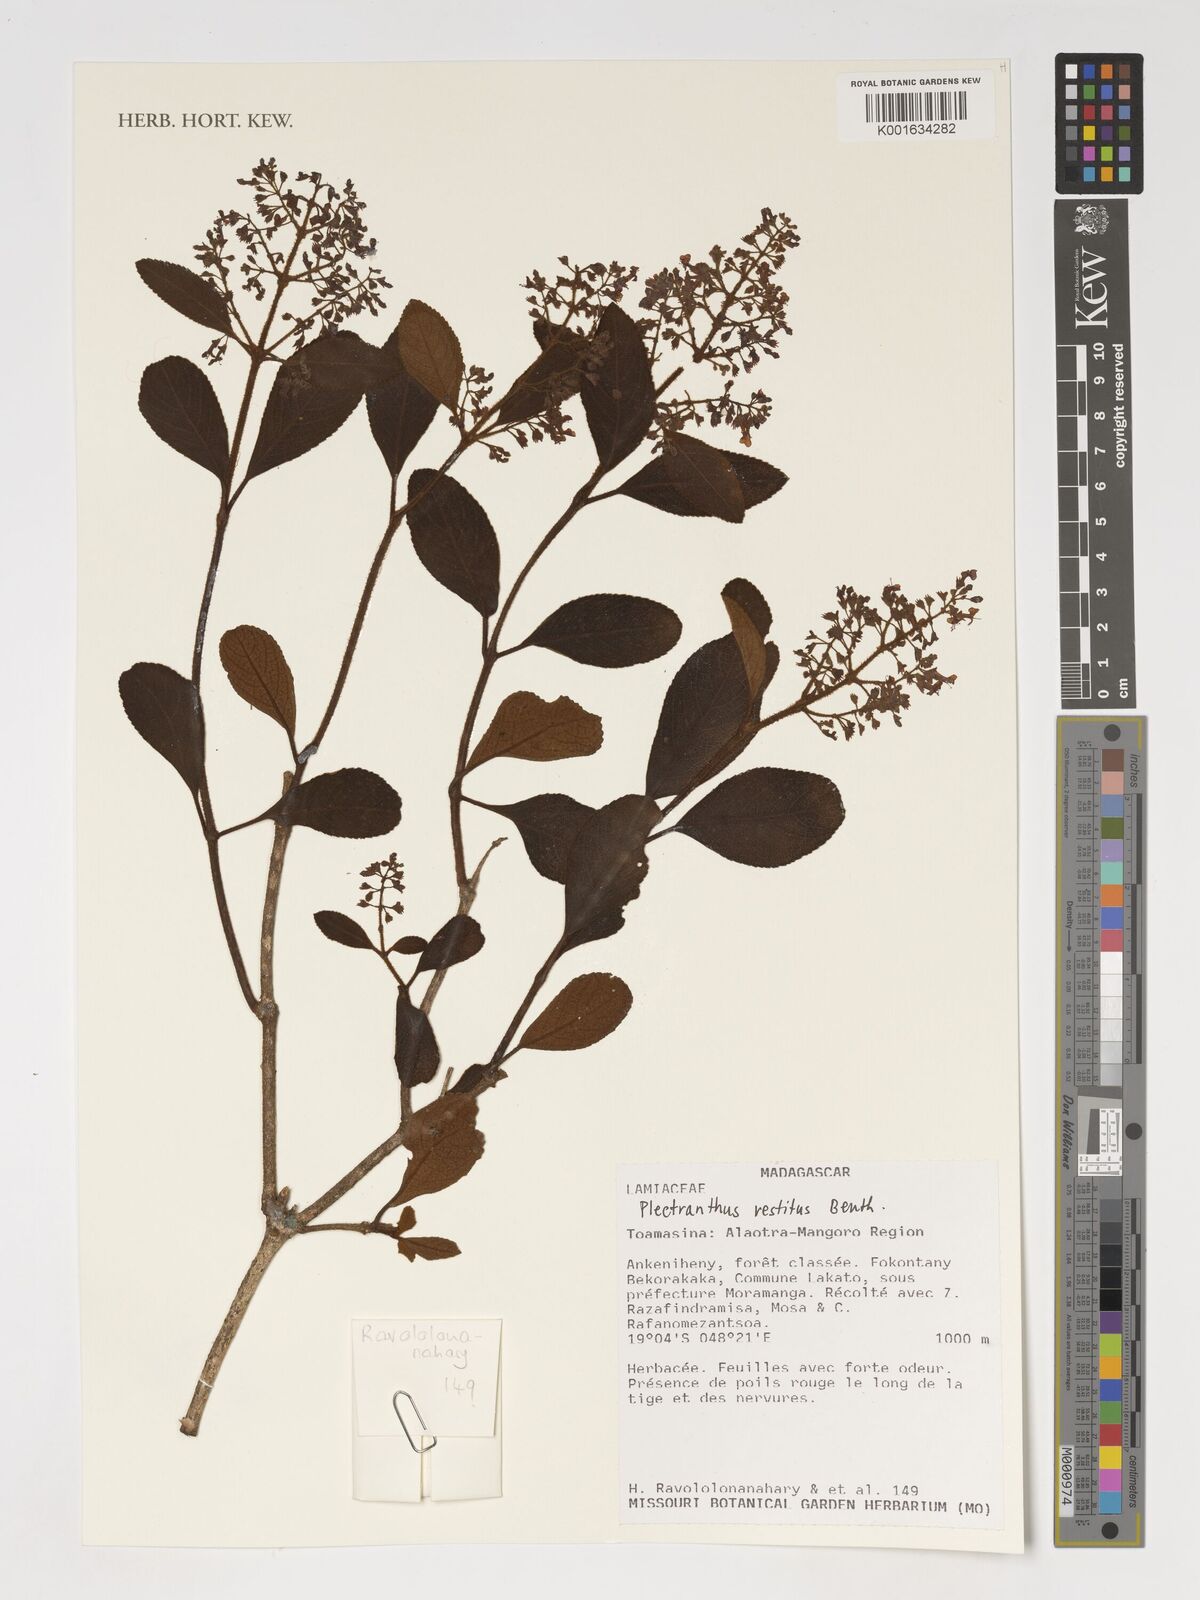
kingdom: Plantae
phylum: Tracheophyta
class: Magnoliopsida
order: Lamiales
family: Lamiaceae
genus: Plectranthus
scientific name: Plectranthus vestitus
